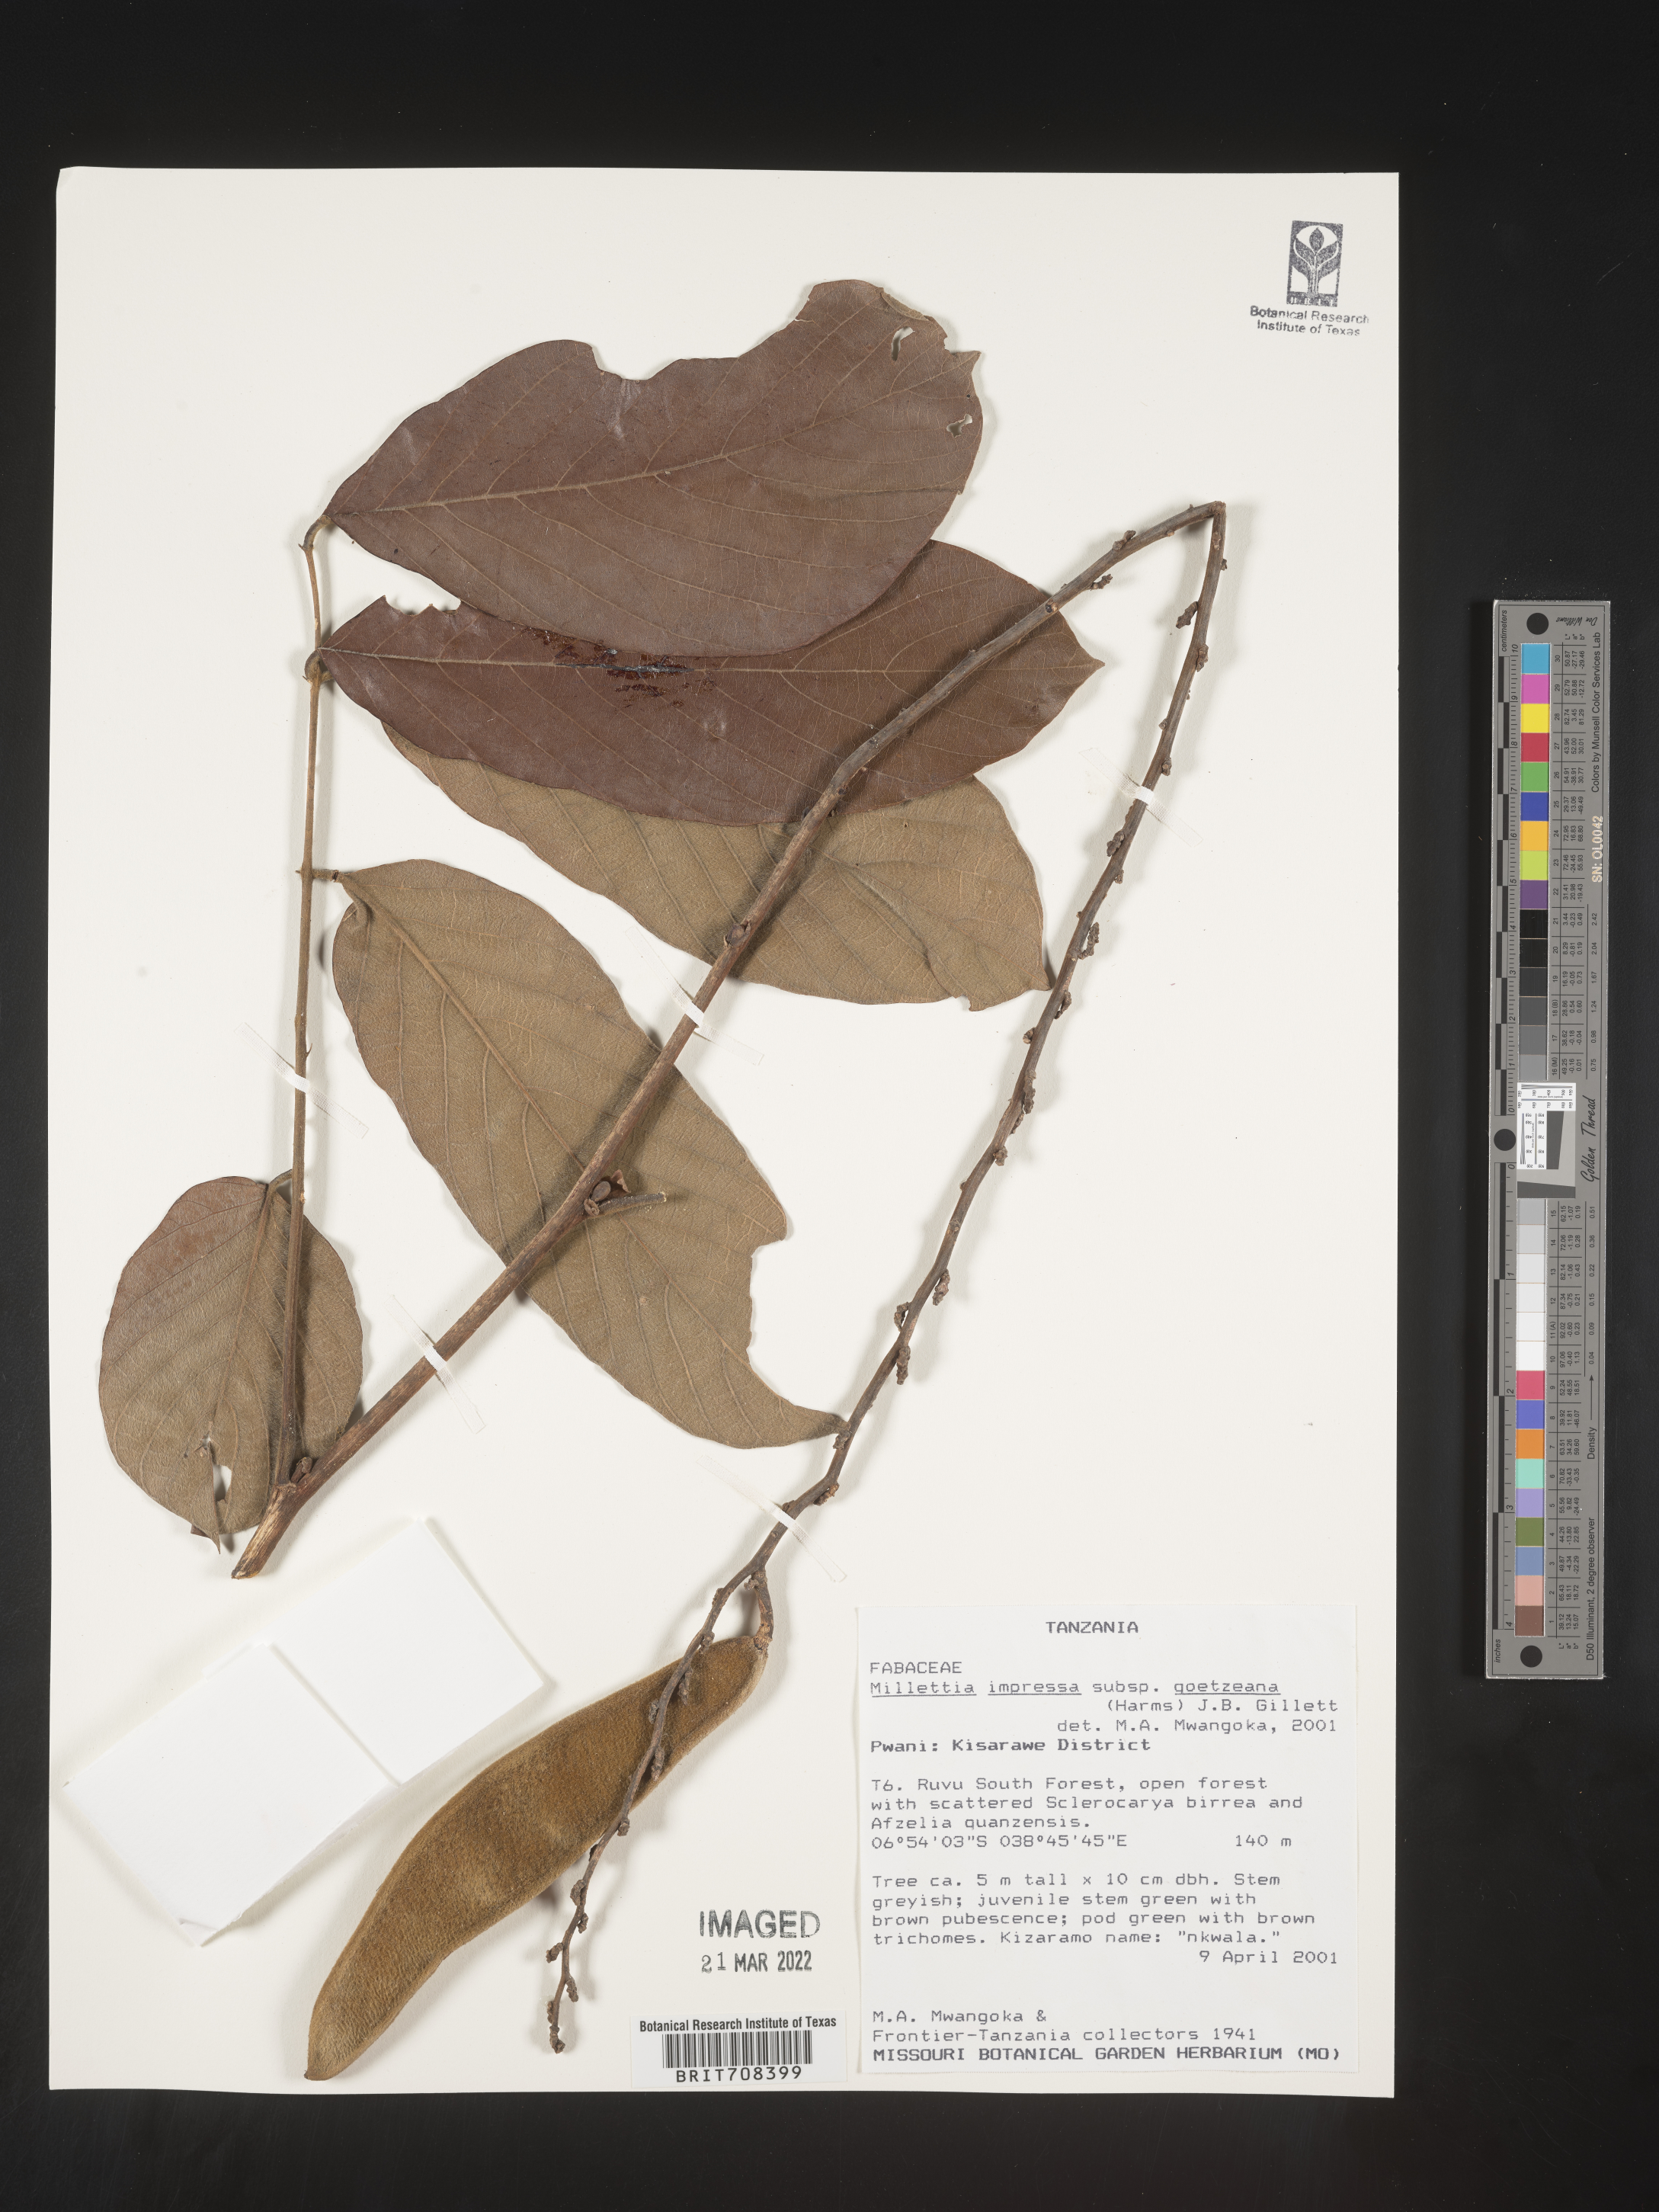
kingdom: Plantae
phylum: Tracheophyta
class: Magnoliopsida
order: Fabales
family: Fabaceae
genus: Millettia
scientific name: Millettia
